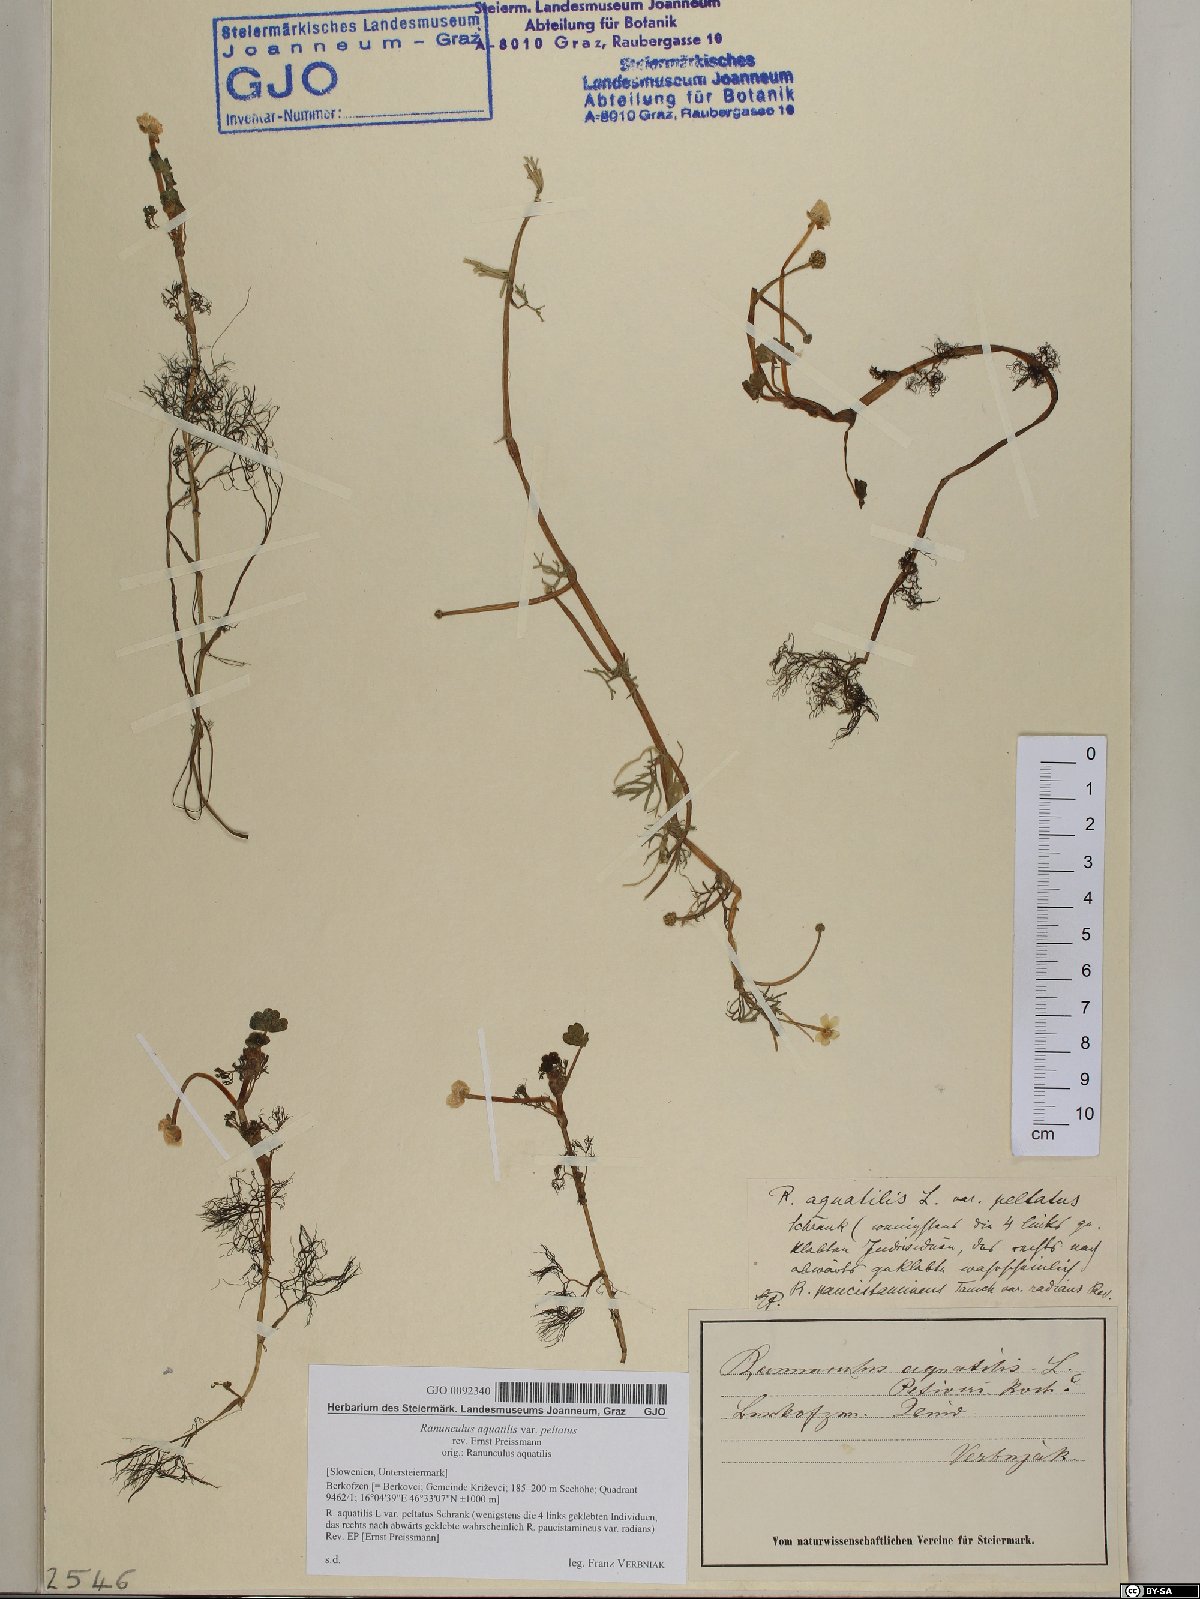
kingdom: Plantae
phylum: Tracheophyta
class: Magnoliopsida
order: Ranunculales
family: Ranunculaceae
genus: Ranunculus
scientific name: Ranunculus peltatus
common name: Pond water-crowfoot
